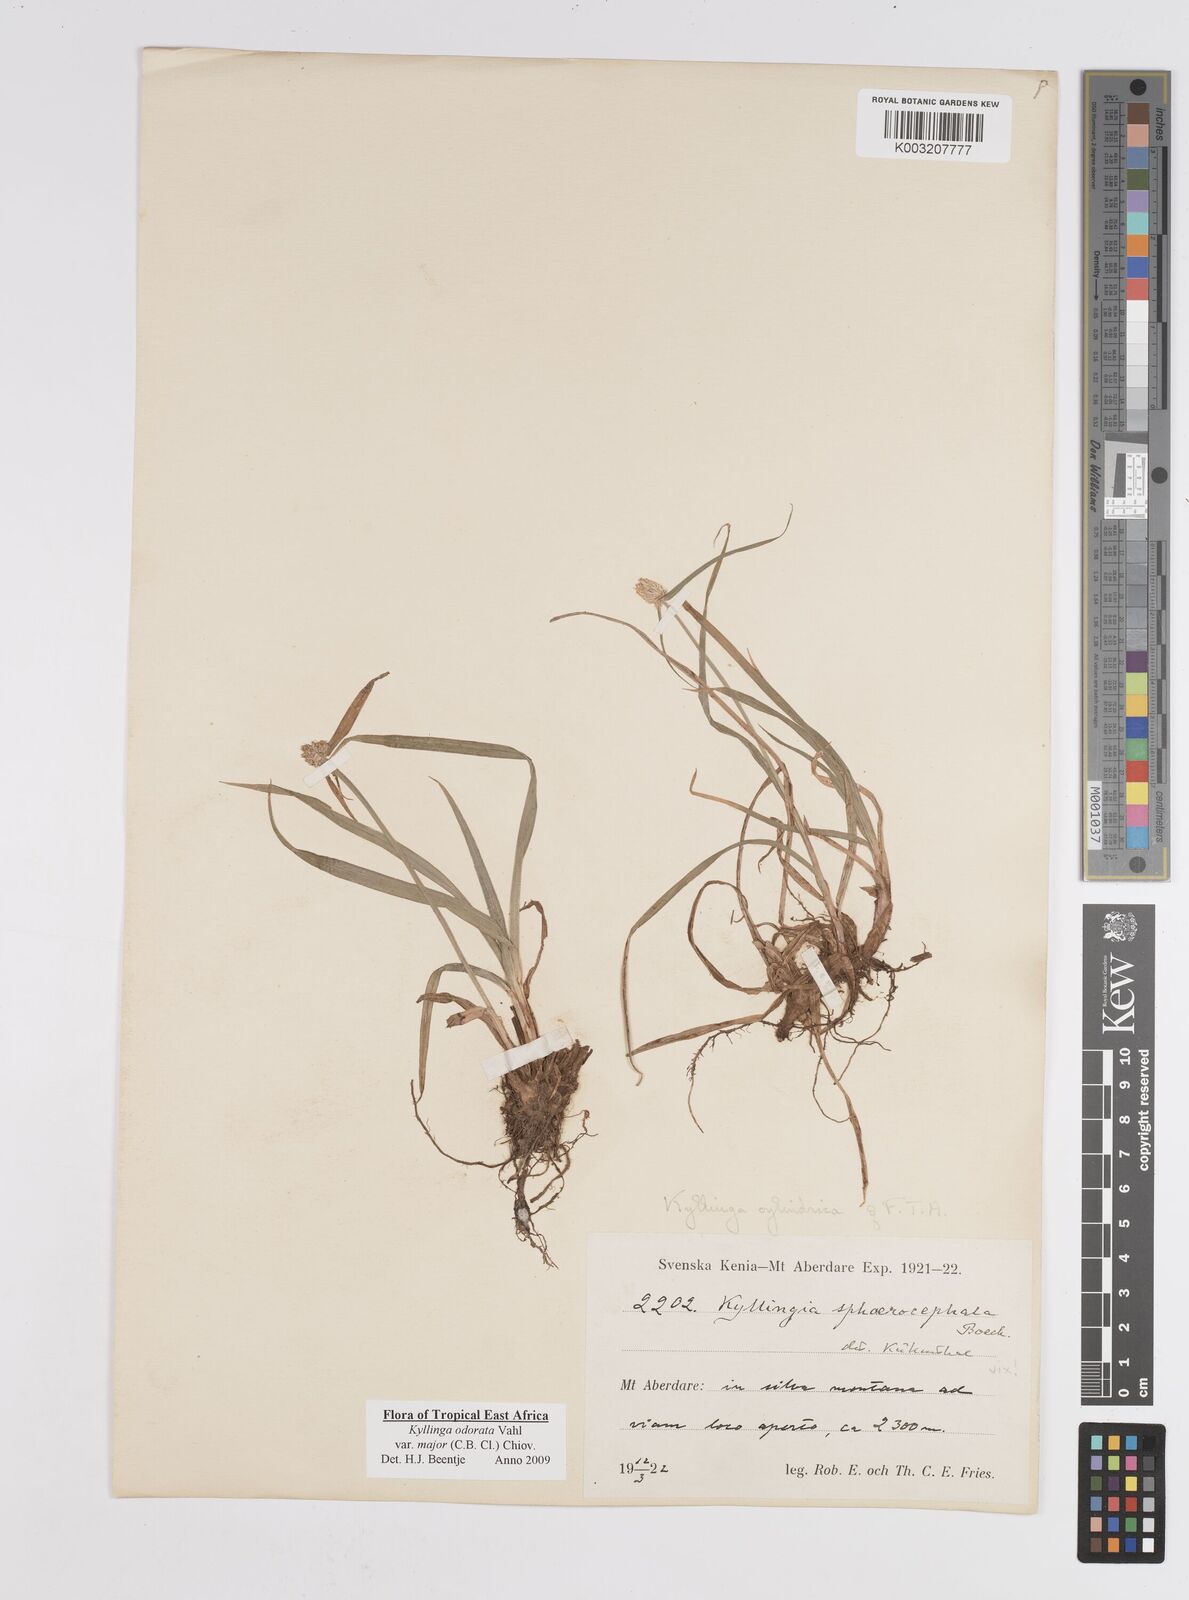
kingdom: Plantae
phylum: Tracheophyta
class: Liliopsida
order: Poales
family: Cyperaceae
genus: Cyperus
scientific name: Cyperus
